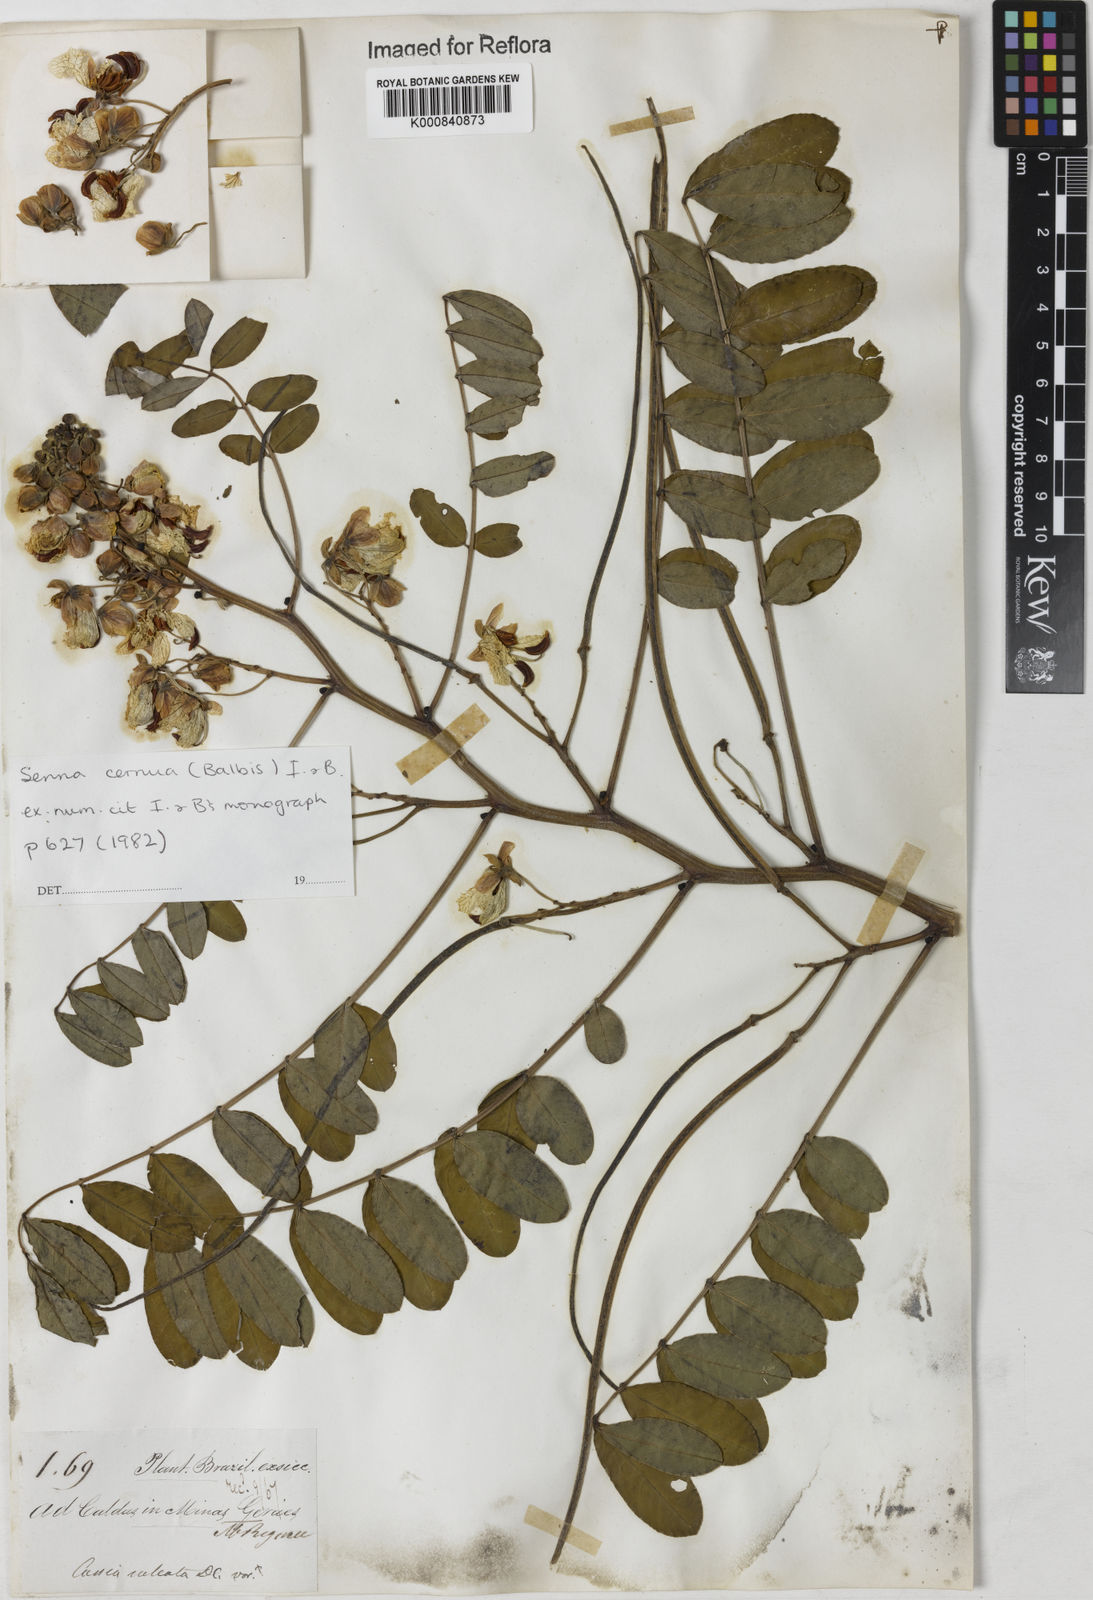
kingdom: Plantae
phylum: Tracheophyta
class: Magnoliopsida
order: Fabales
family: Fabaceae
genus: Senna
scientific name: Senna cernua
